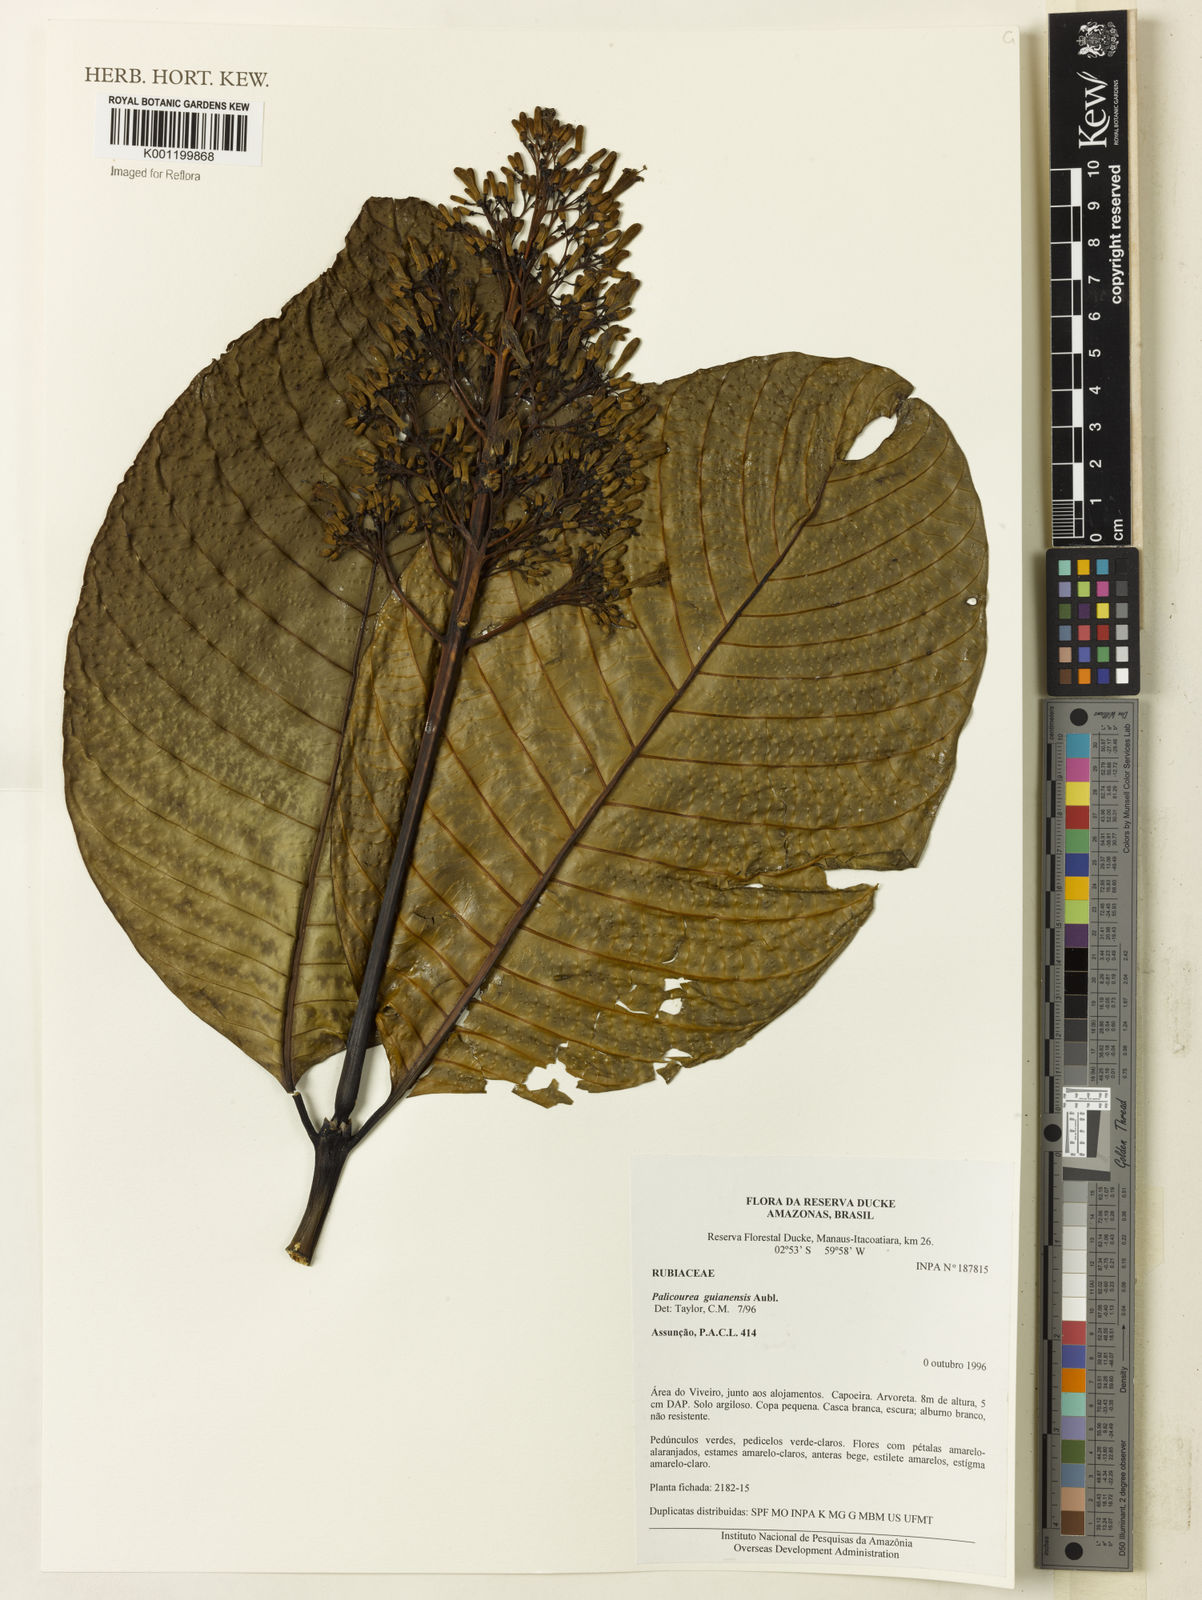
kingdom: Plantae
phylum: Tracheophyta
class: Magnoliopsida
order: Gentianales
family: Rubiaceae
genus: Palicourea
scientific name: Palicourea guianensis
